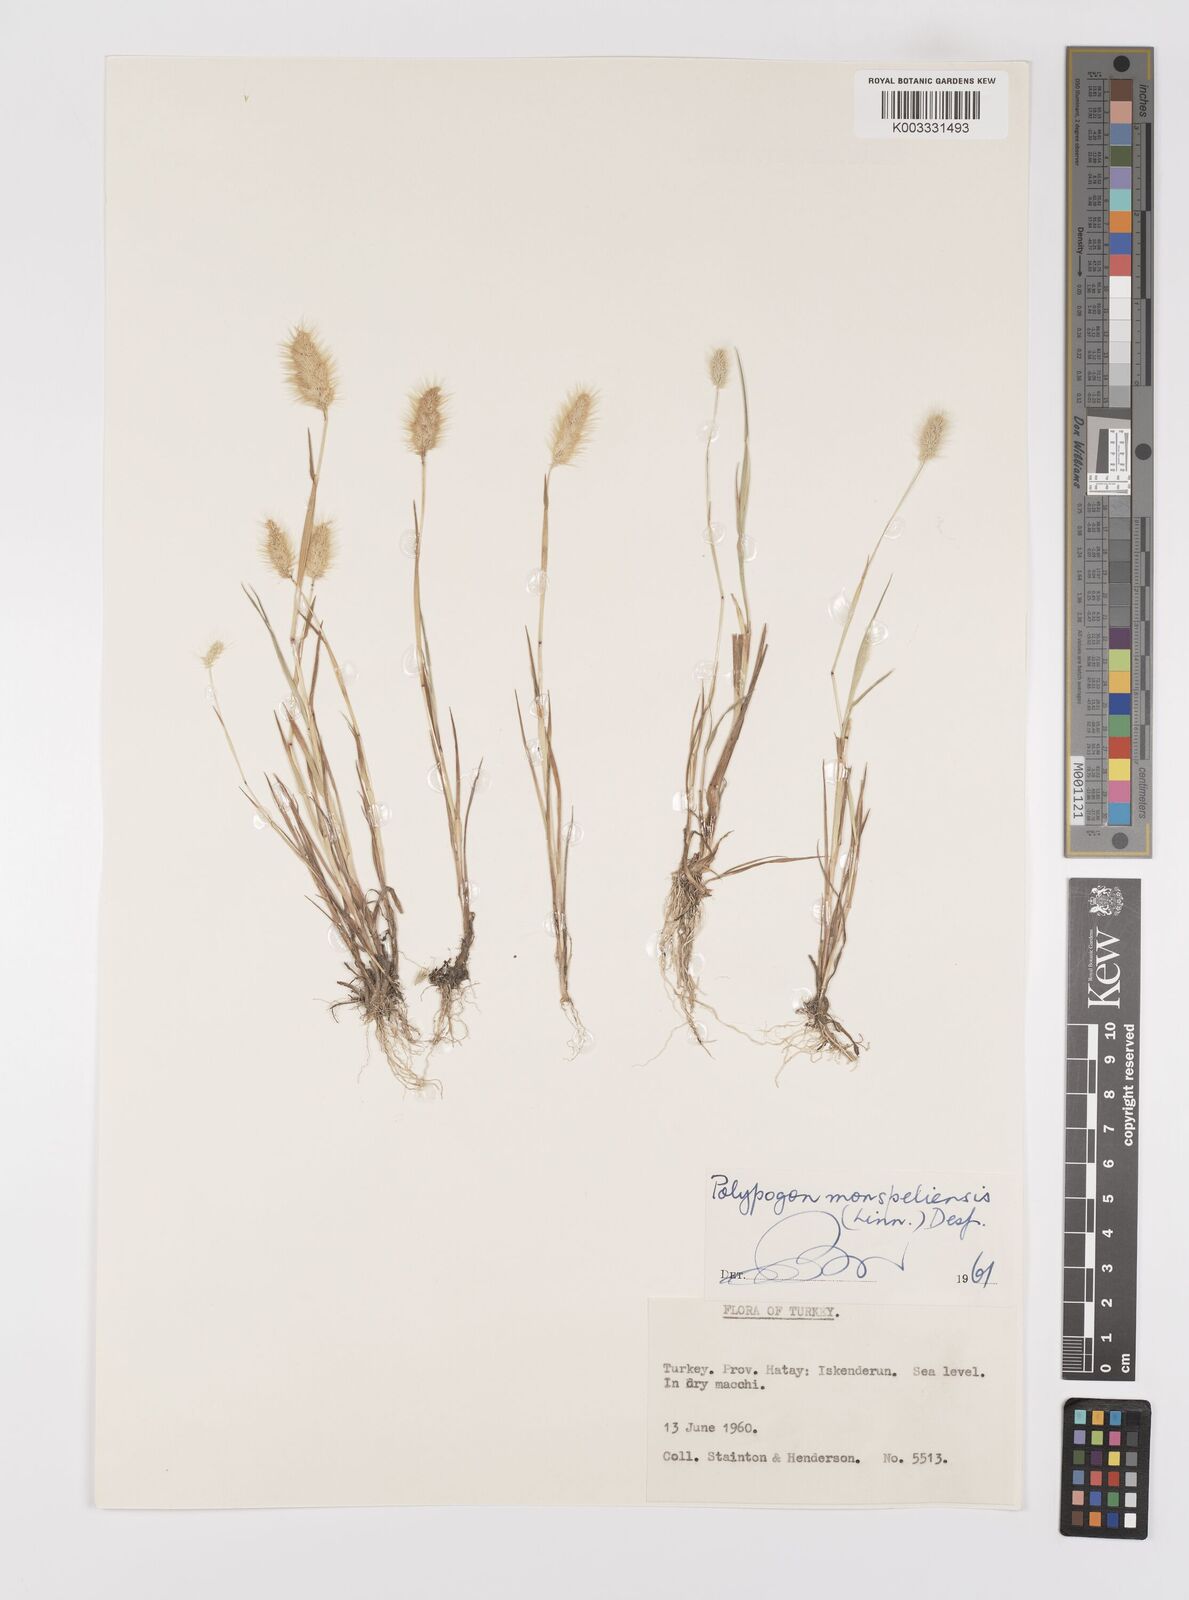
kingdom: Plantae
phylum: Tracheophyta
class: Liliopsida
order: Poales
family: Poaceae
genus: Polypogon
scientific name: Polypogon monspeliensis
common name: Annual rabbitsfoot grass
